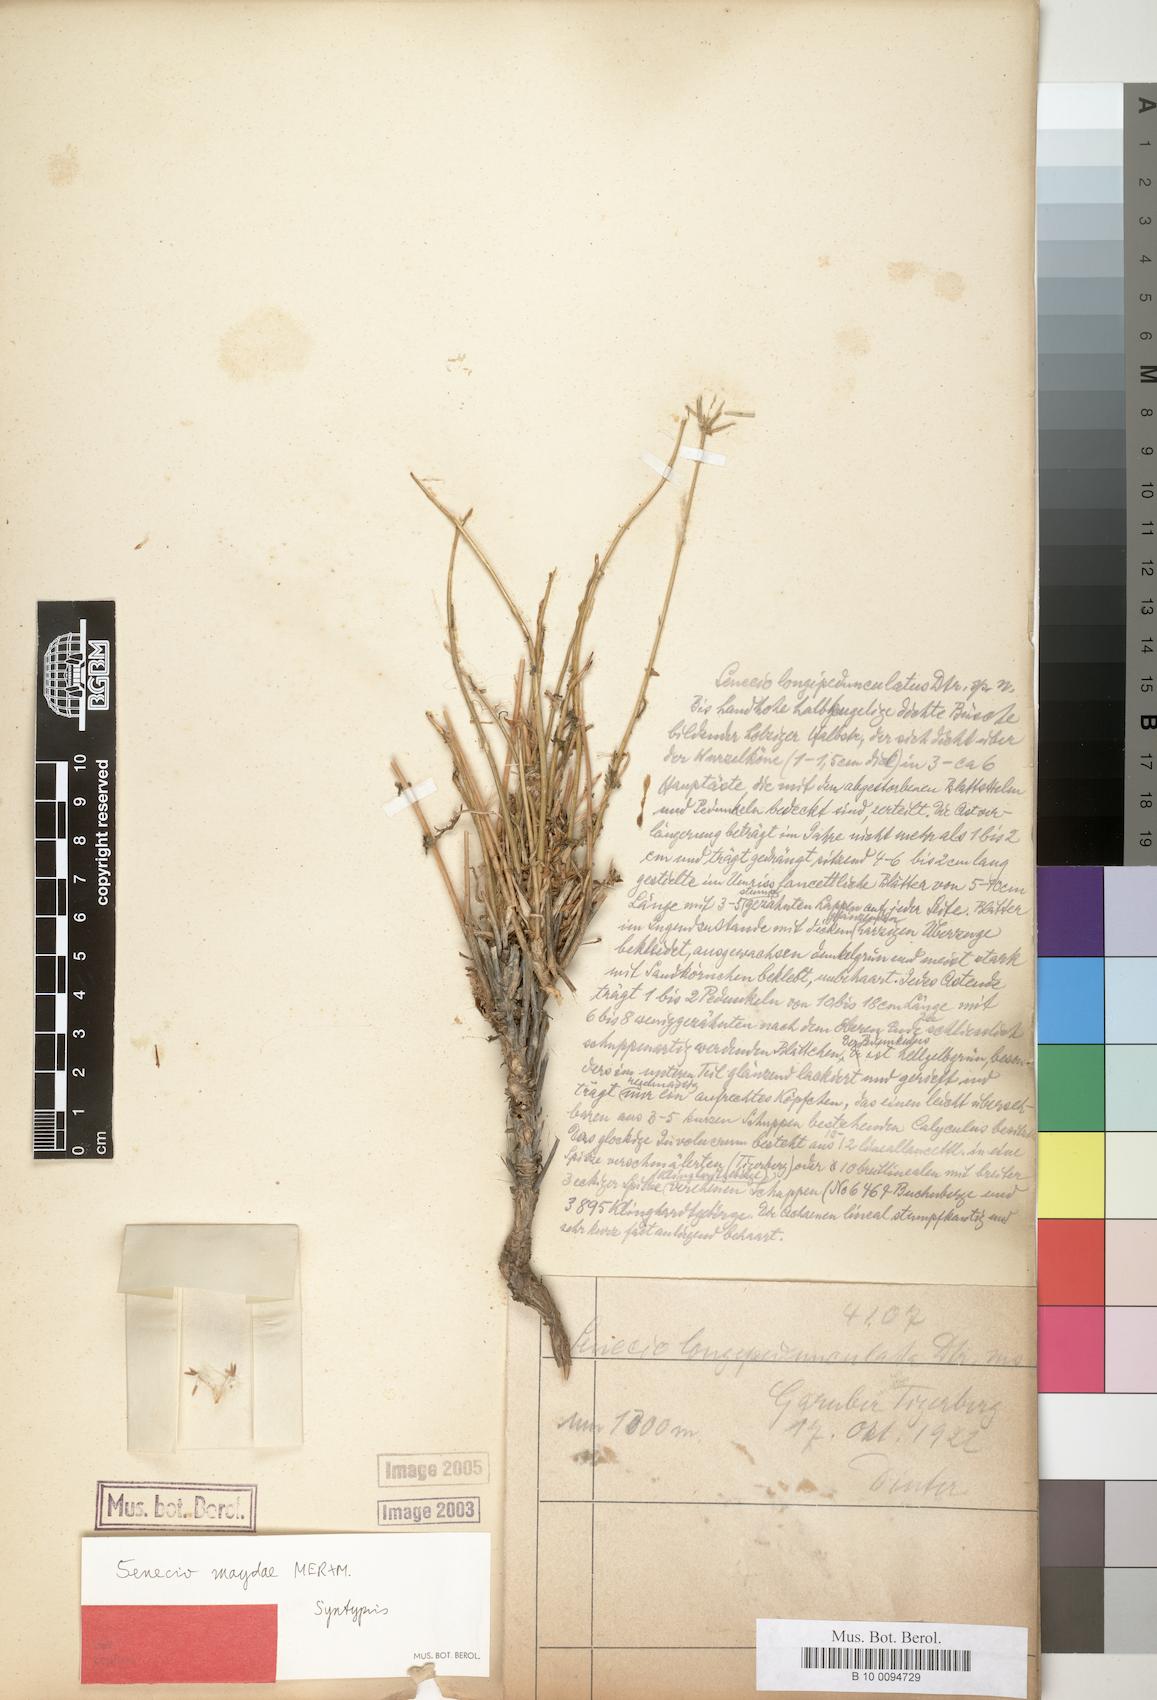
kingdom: Plantae
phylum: Tracheophyta
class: Magnoliopsida
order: Asterales
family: Asteraceae
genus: Senecio
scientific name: Senecio maydae
